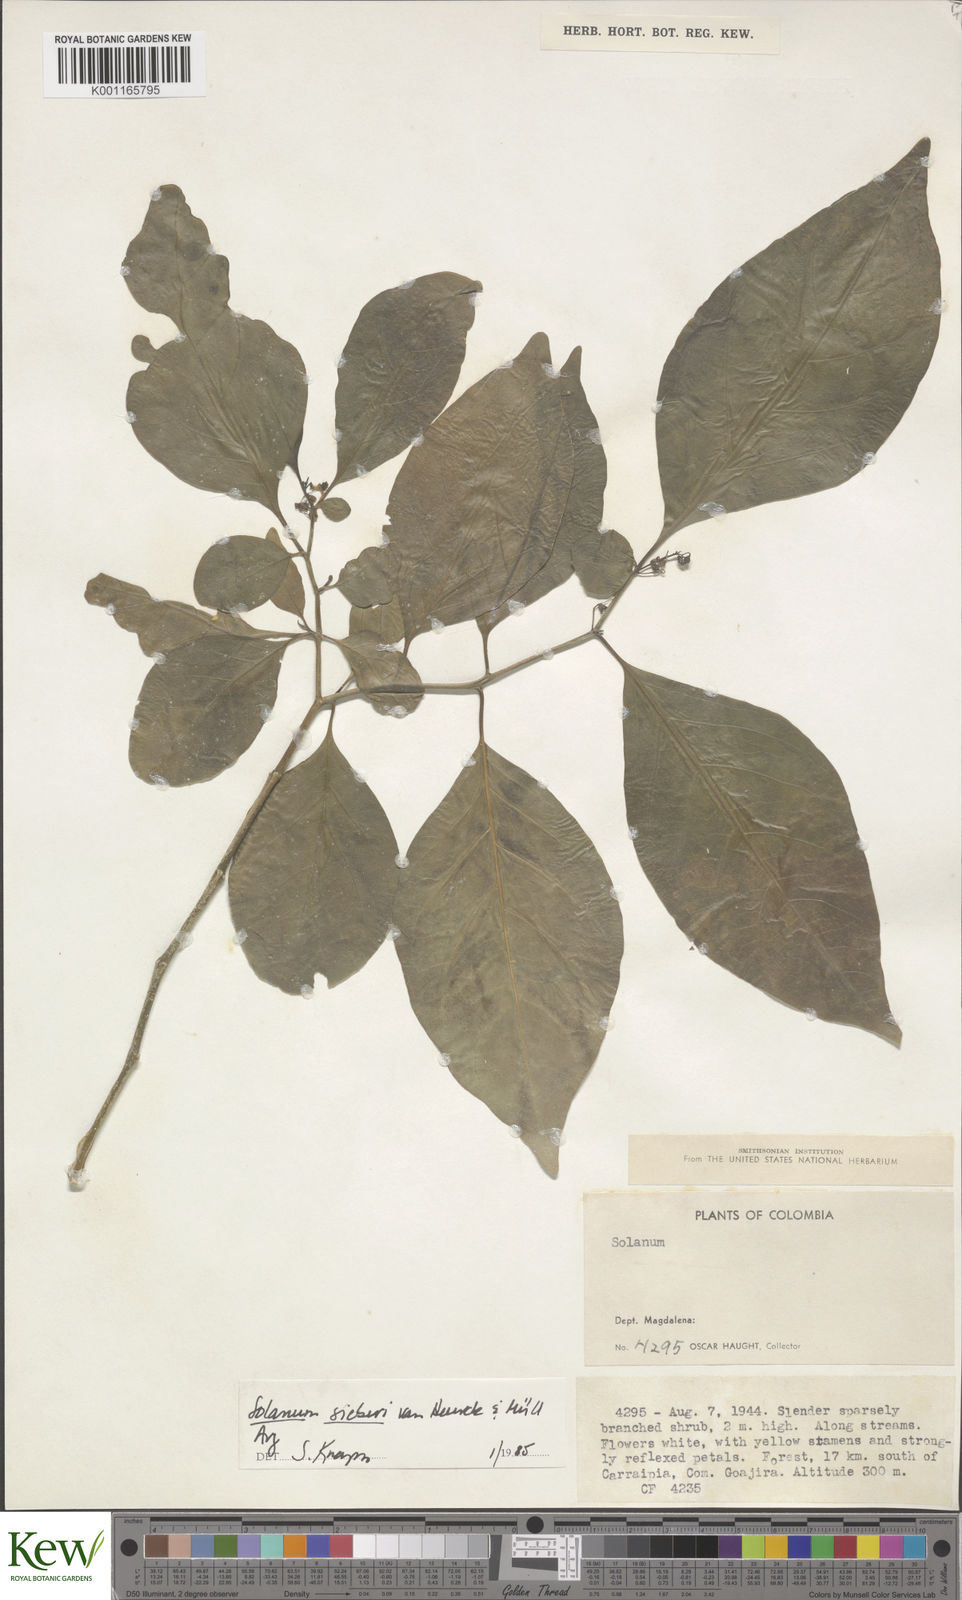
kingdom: Plantae
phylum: Tracheophyta
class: Magnoliopsida
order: Solanales
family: Solanaceae
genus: Solanum
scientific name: Solanum sieberi
